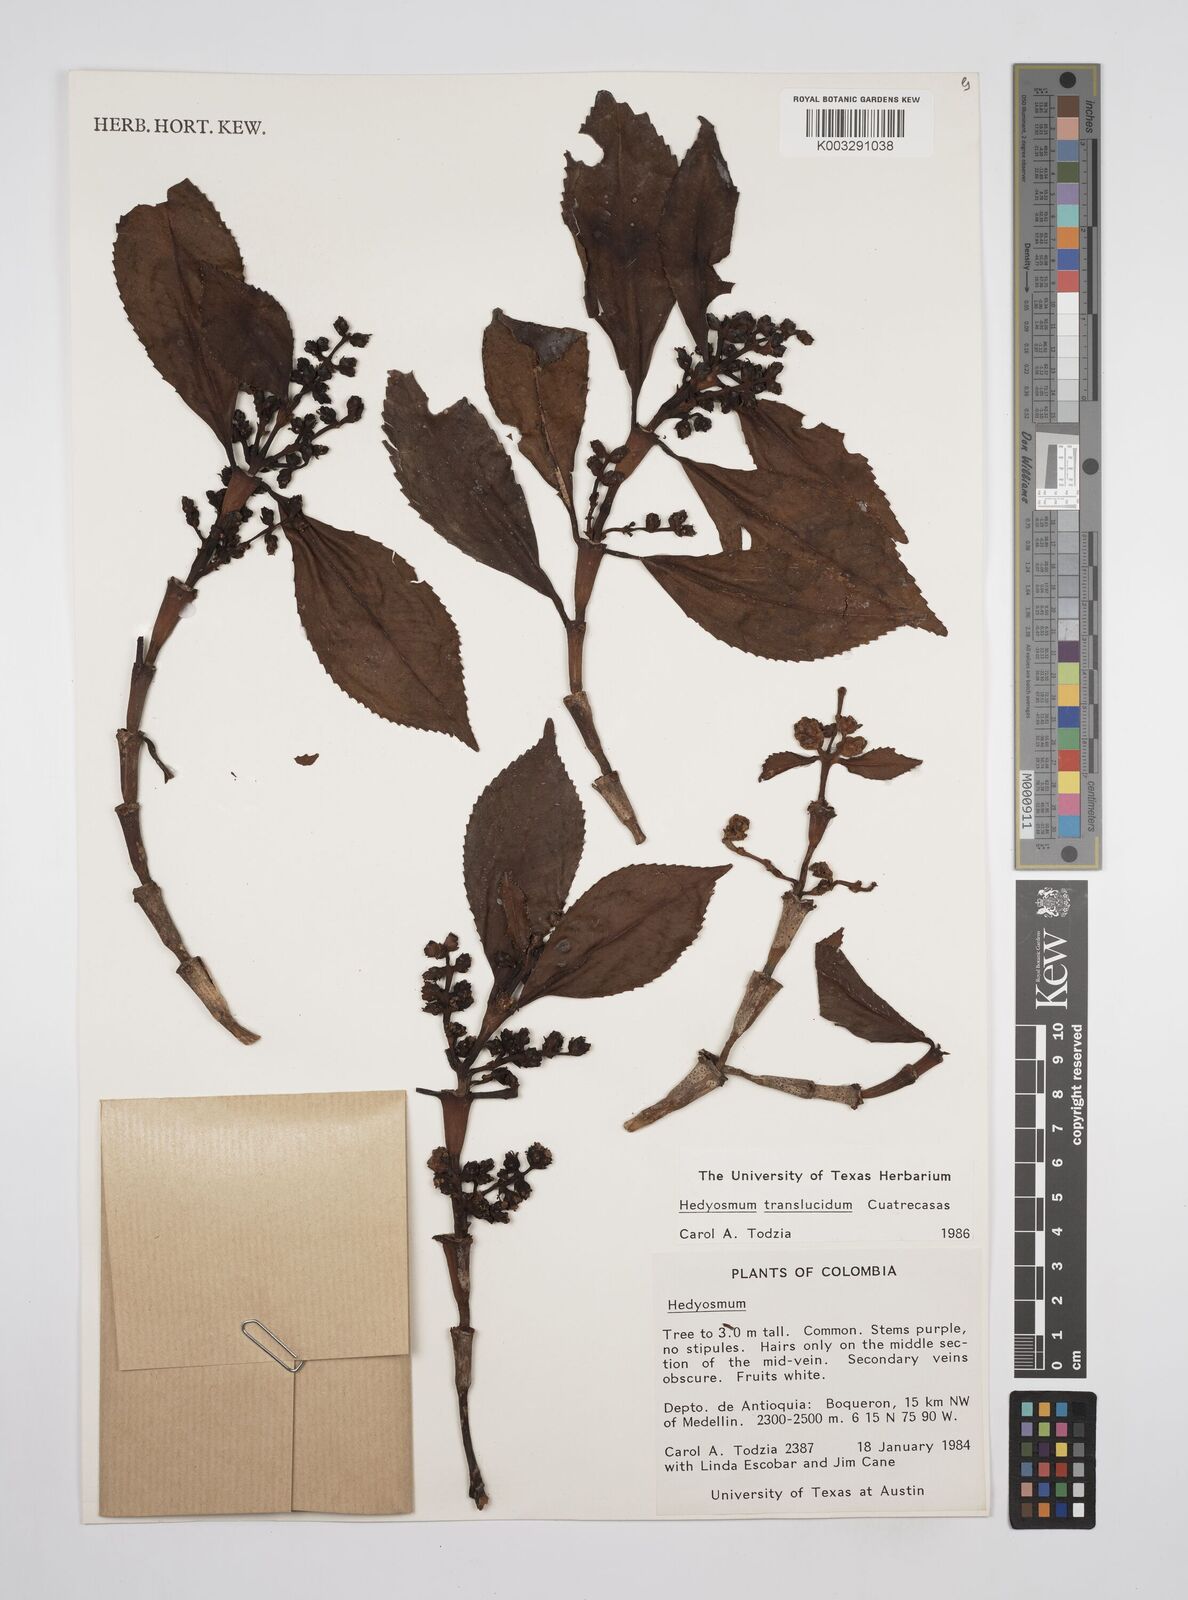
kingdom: Plantae
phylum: Tracheophyta
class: Magnoliopsida
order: Chloranthales
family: Chloranthaceae
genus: Hedyosmum
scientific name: Hedyosmum translucidum
